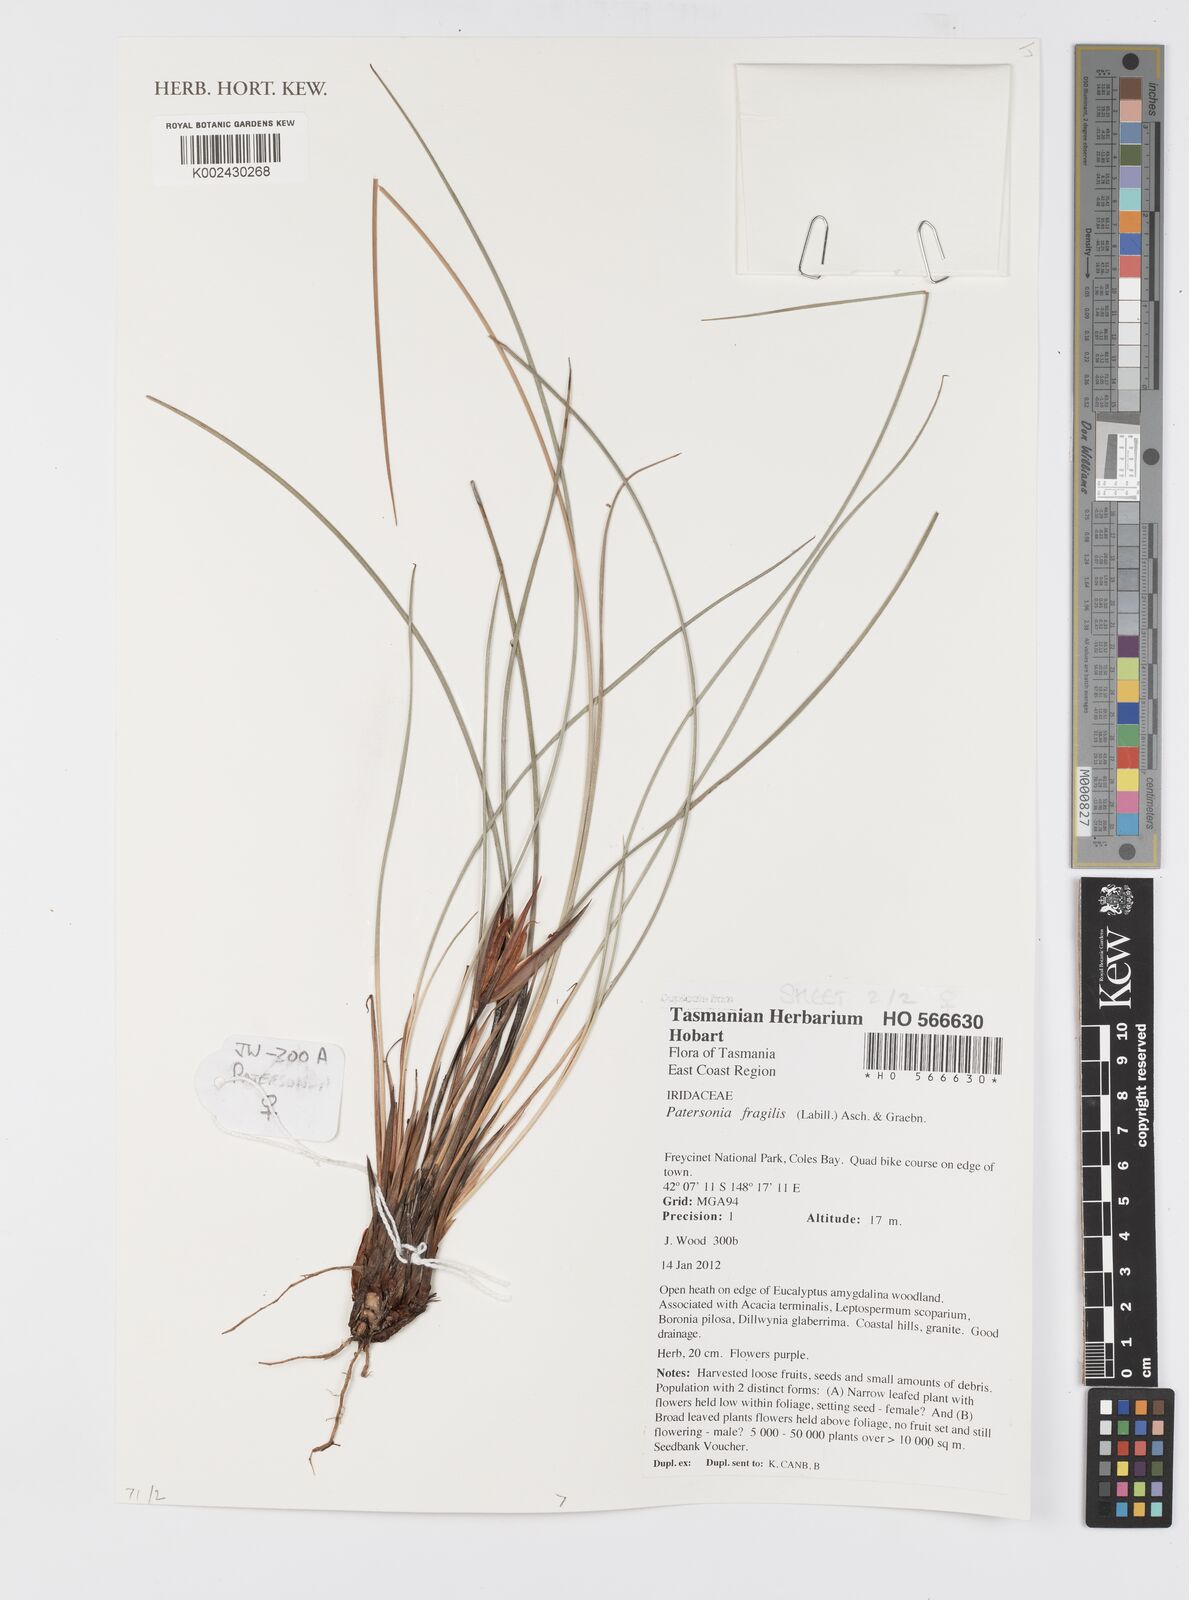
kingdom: Plantae
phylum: Tracheophyta
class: Liliopsida
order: Asparagales
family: Iridaceae
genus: Patersonia
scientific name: Patersonia fragilis
